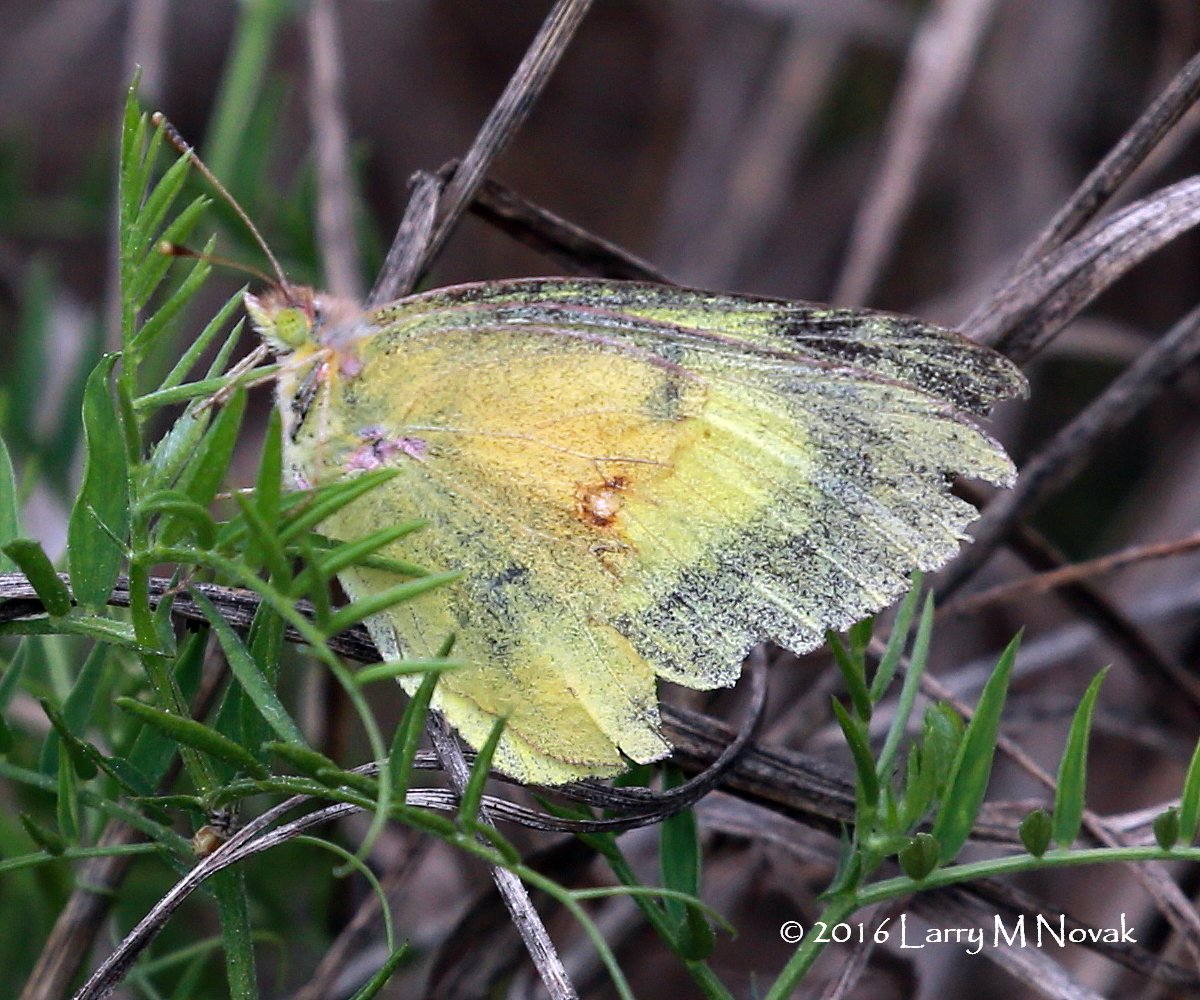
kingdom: Animalia
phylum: Arthropoda
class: Insecta
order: Lepidoptera
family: Pieridae
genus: Colias
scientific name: Colias eurytheme
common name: Orange Sulphur
